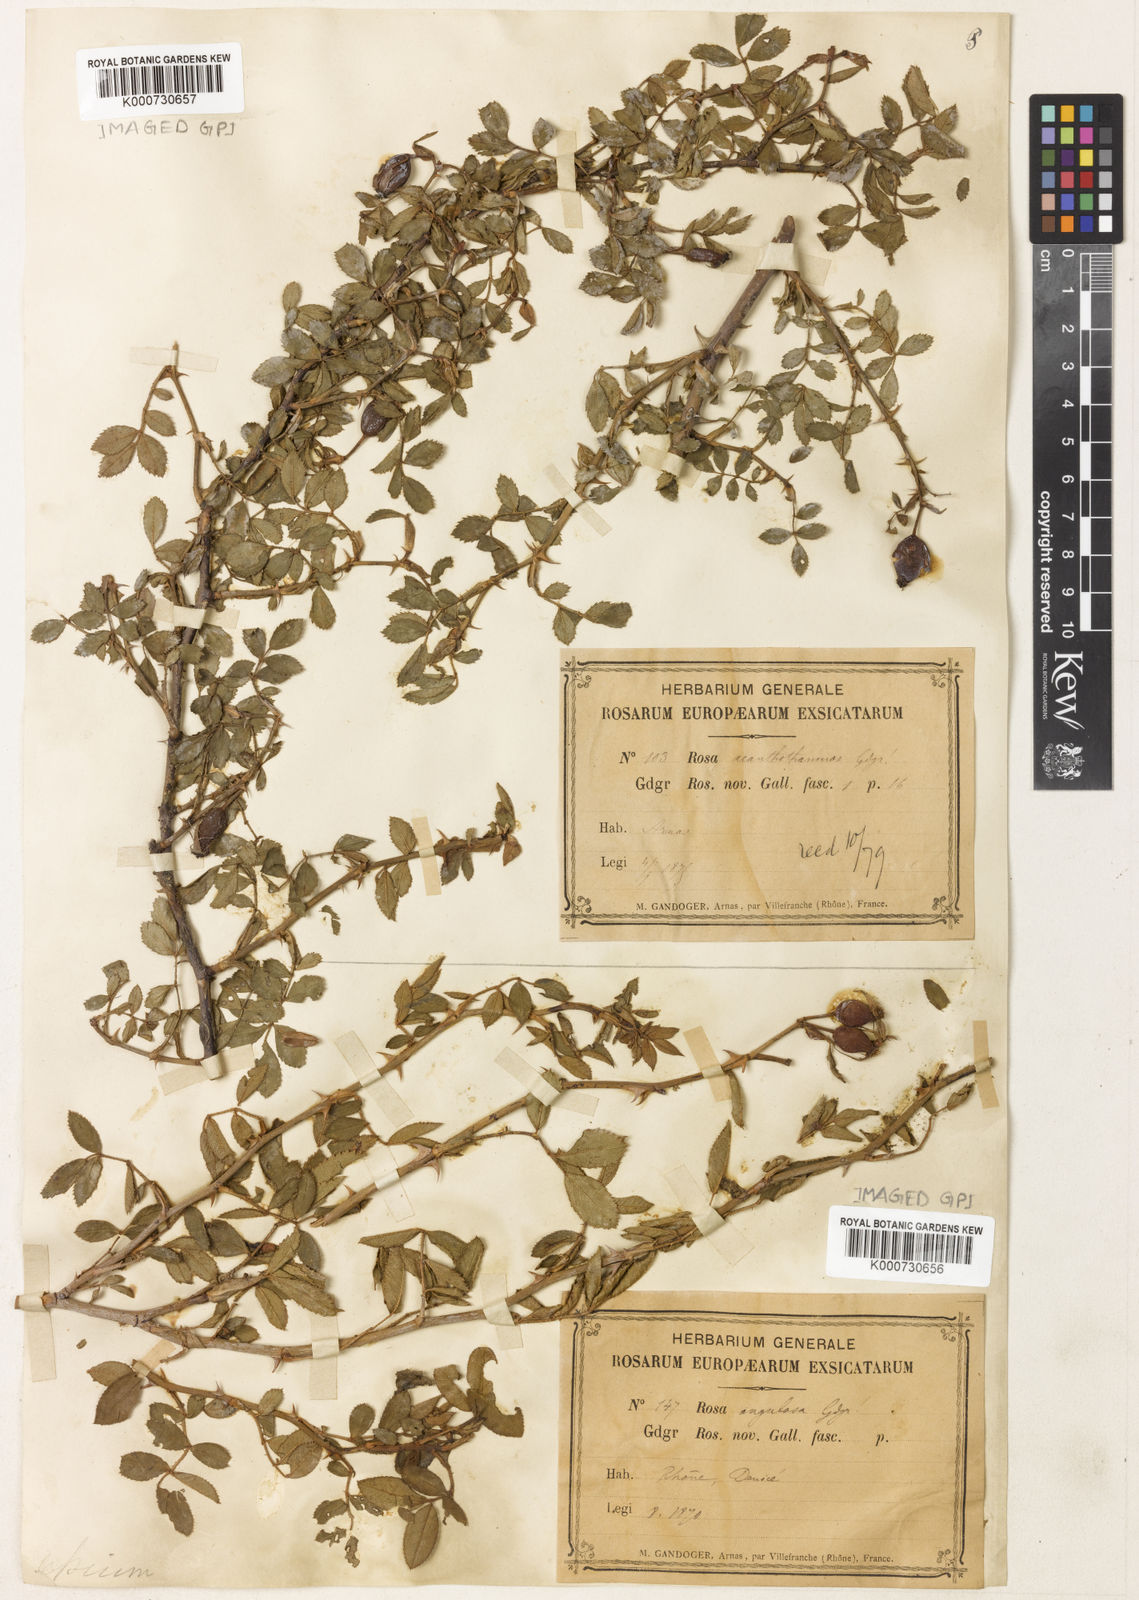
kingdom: Plantae
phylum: Tracheophyta
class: Magnoliopsida
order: Rosales
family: Rosaceae
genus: Rosa
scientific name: Rosa agrestis
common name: Fieldbriar
